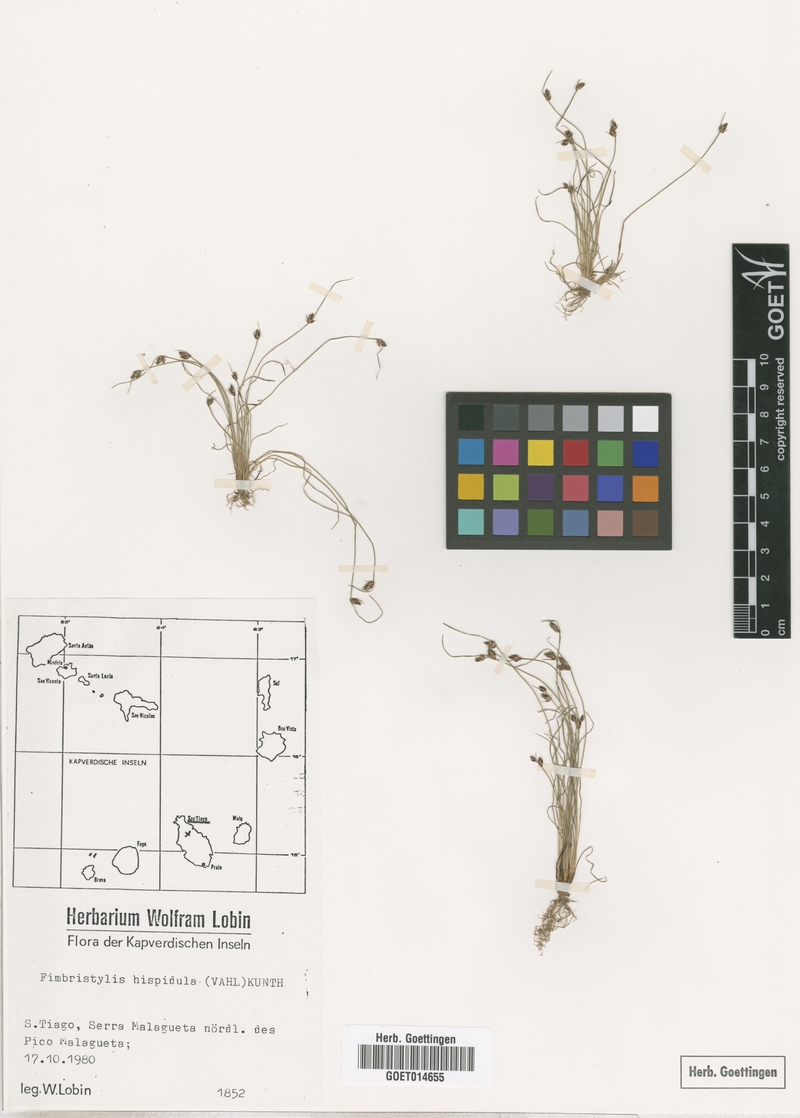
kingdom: Plantae
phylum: Tracheophyta
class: Liliopsida
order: Poales
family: Cyperaceae
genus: Bulbostylis
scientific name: Bulbostylis hispidula
